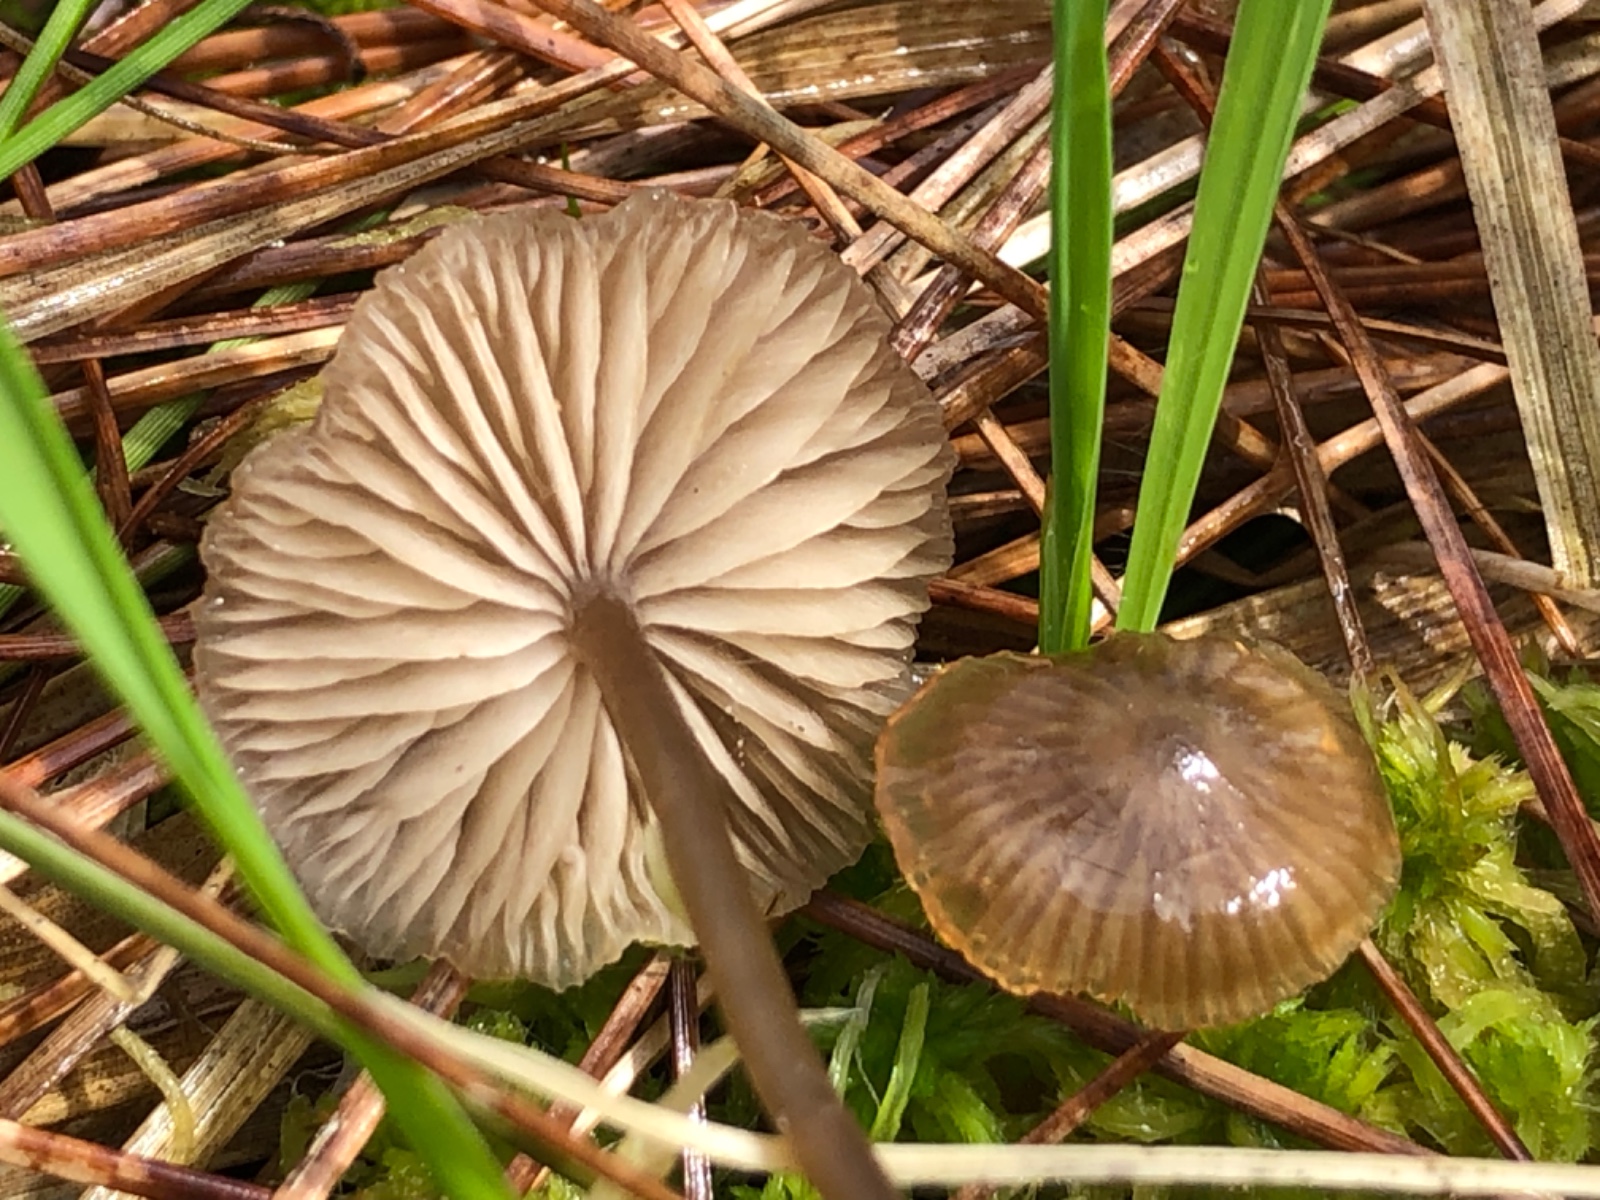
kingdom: Fungi
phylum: Basidiomycota
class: Agaricomycetes
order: Agaricales
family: Lyophyllaceae
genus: Sphagnurus
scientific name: Sphagnurus paluster
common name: tørvemos-gråblad
